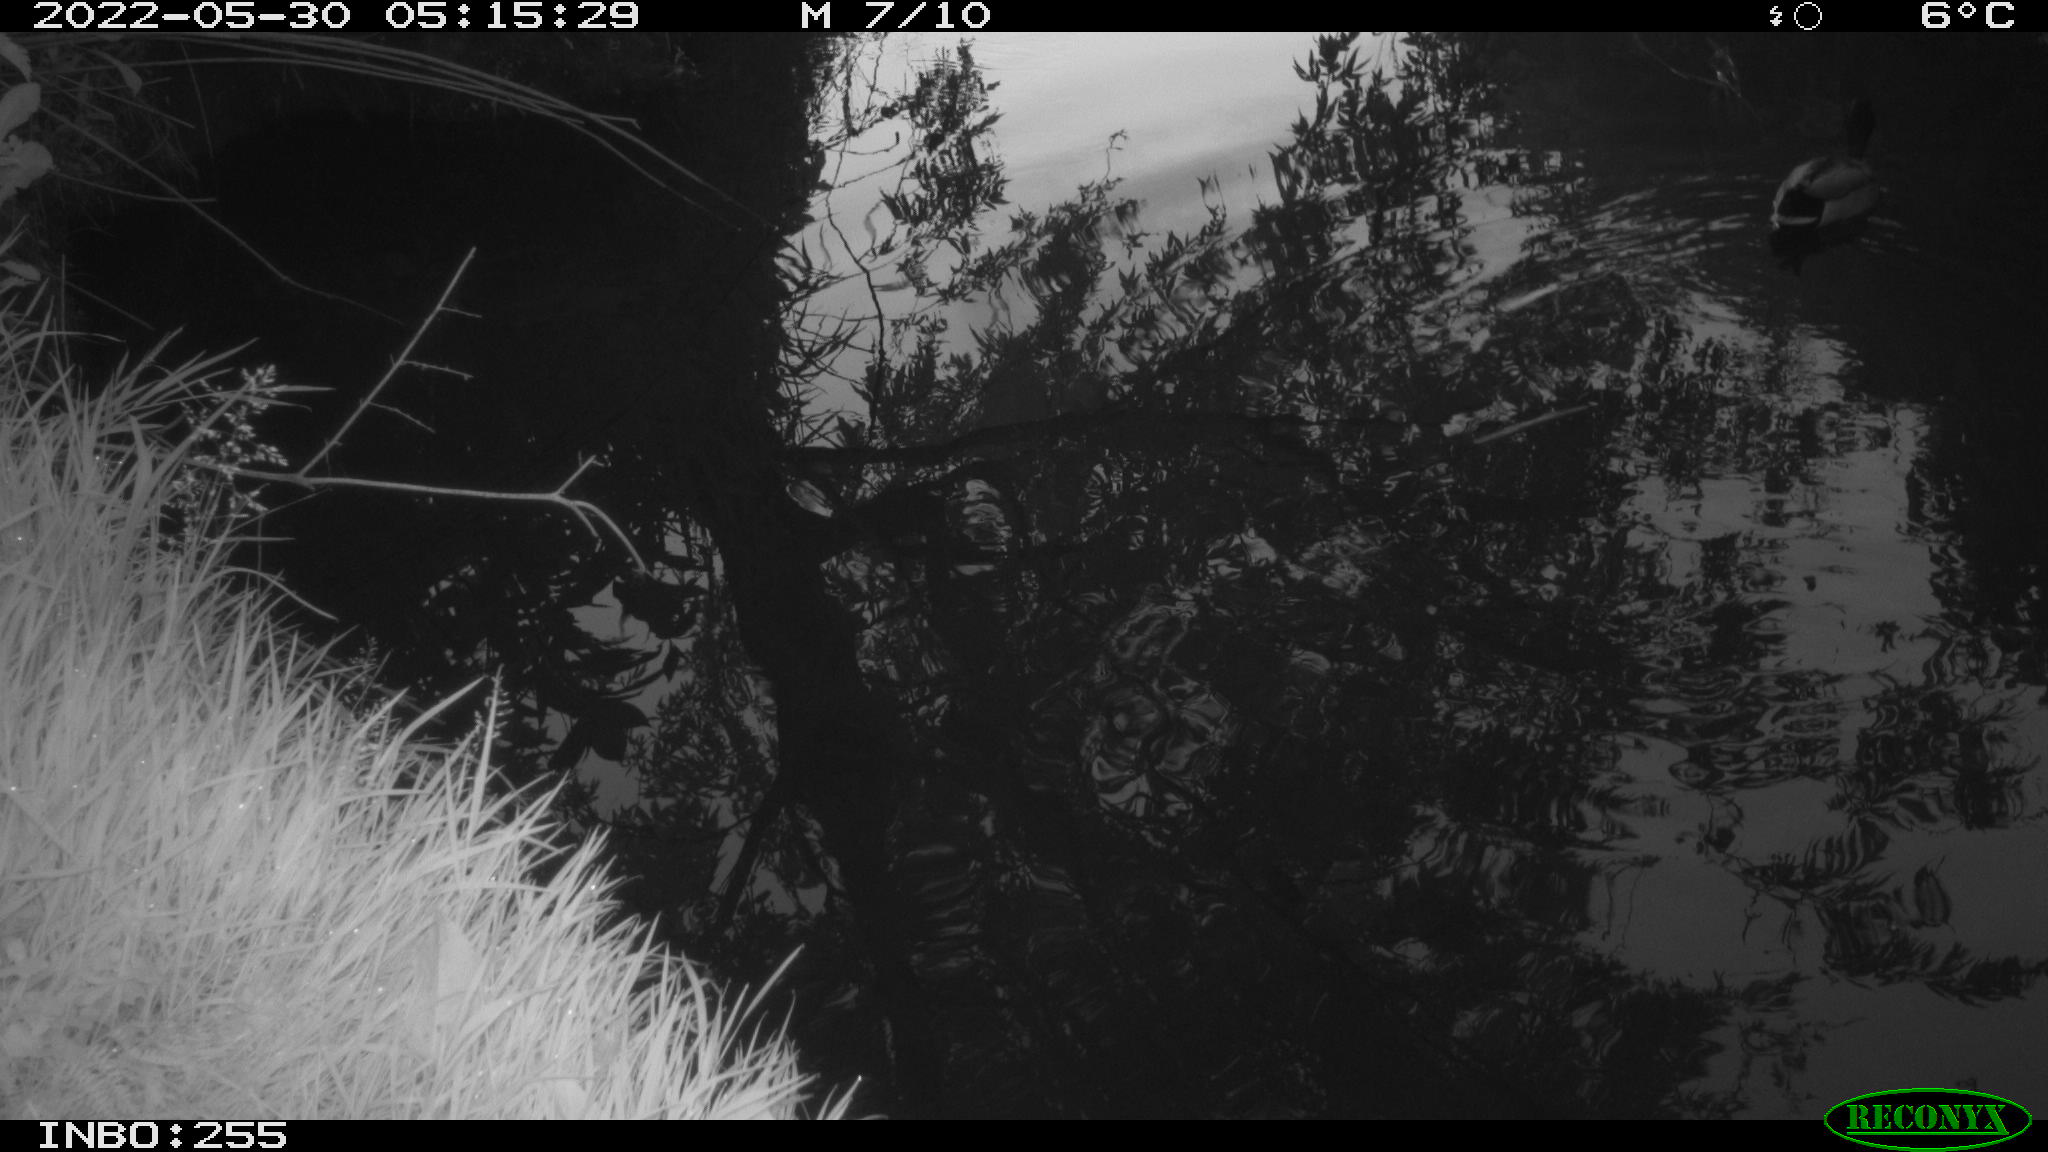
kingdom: Animalia
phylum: Chordata
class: Aves
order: Anseriformes
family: Anatidae
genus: Anas
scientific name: Anas platyrhynchos
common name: Mallard
